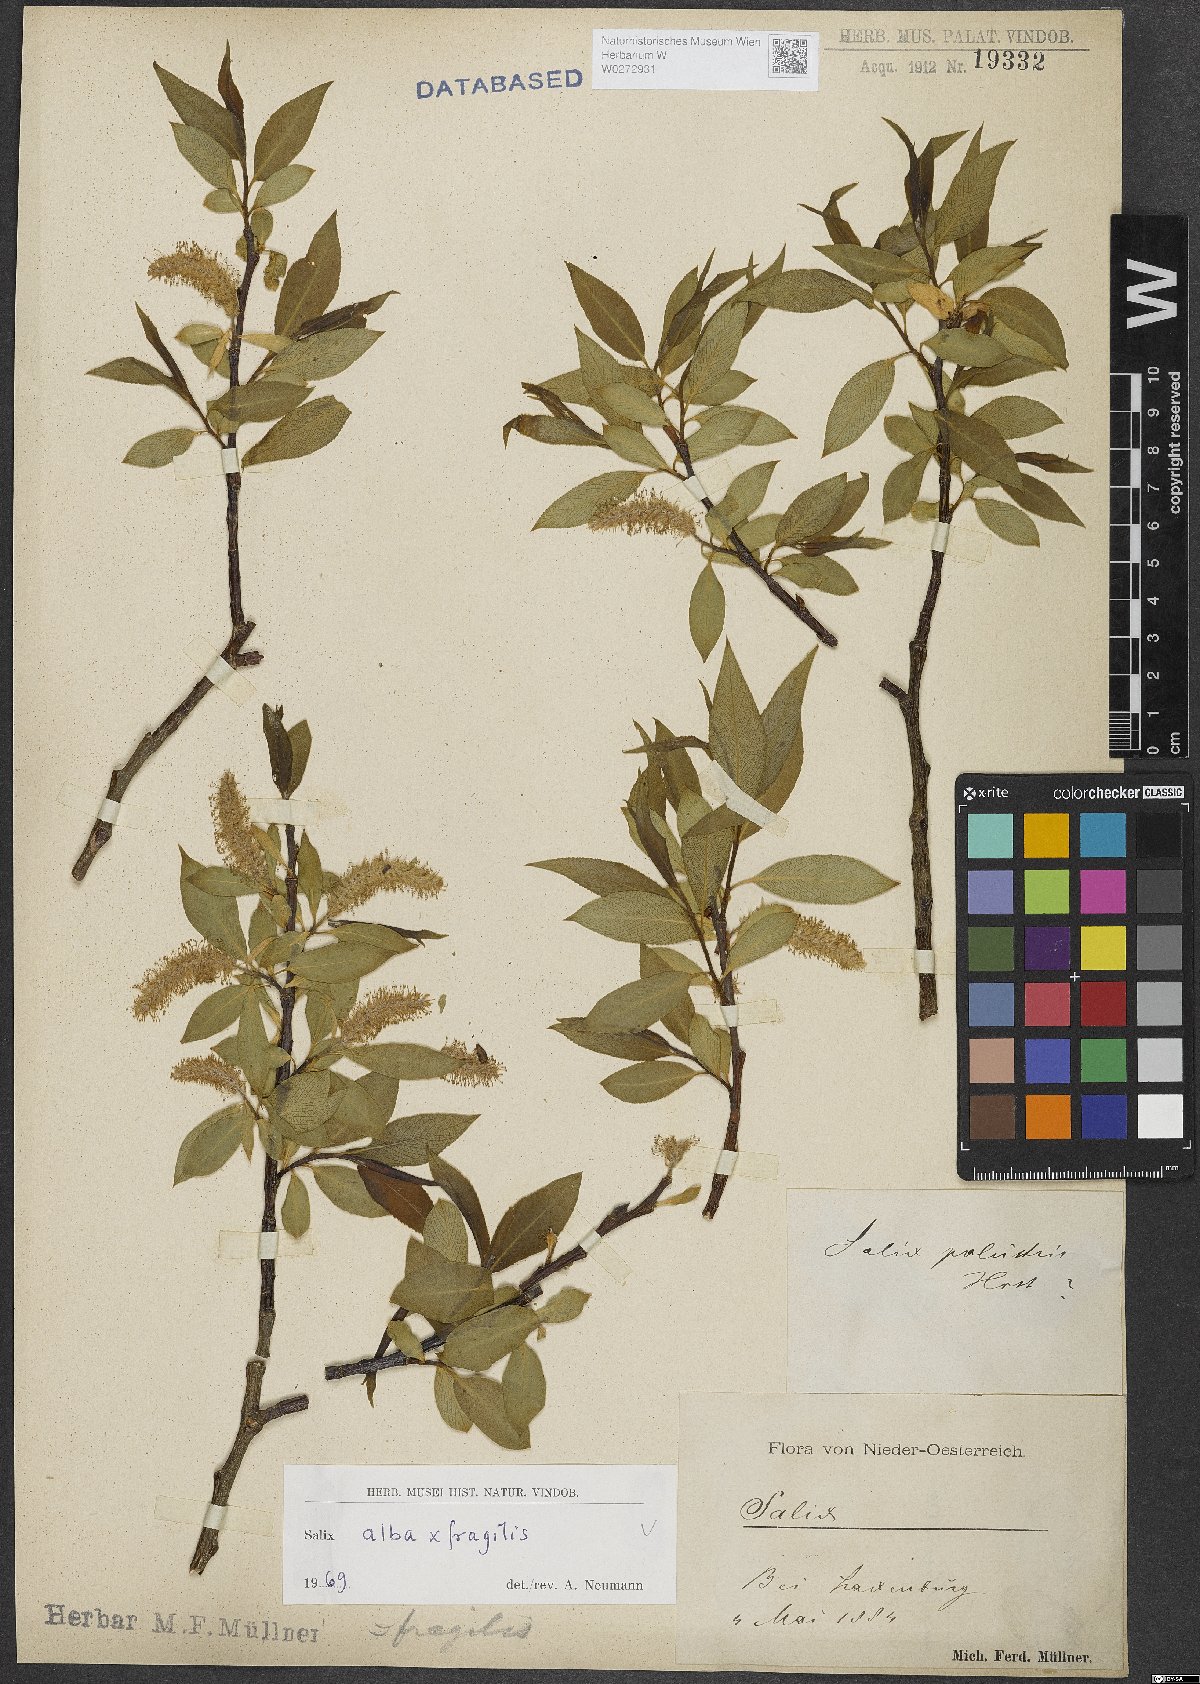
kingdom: Plantae
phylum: Tracheophyta
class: Magnoliopsida
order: Malpighiales
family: Salicaceae
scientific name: Salicaceae
